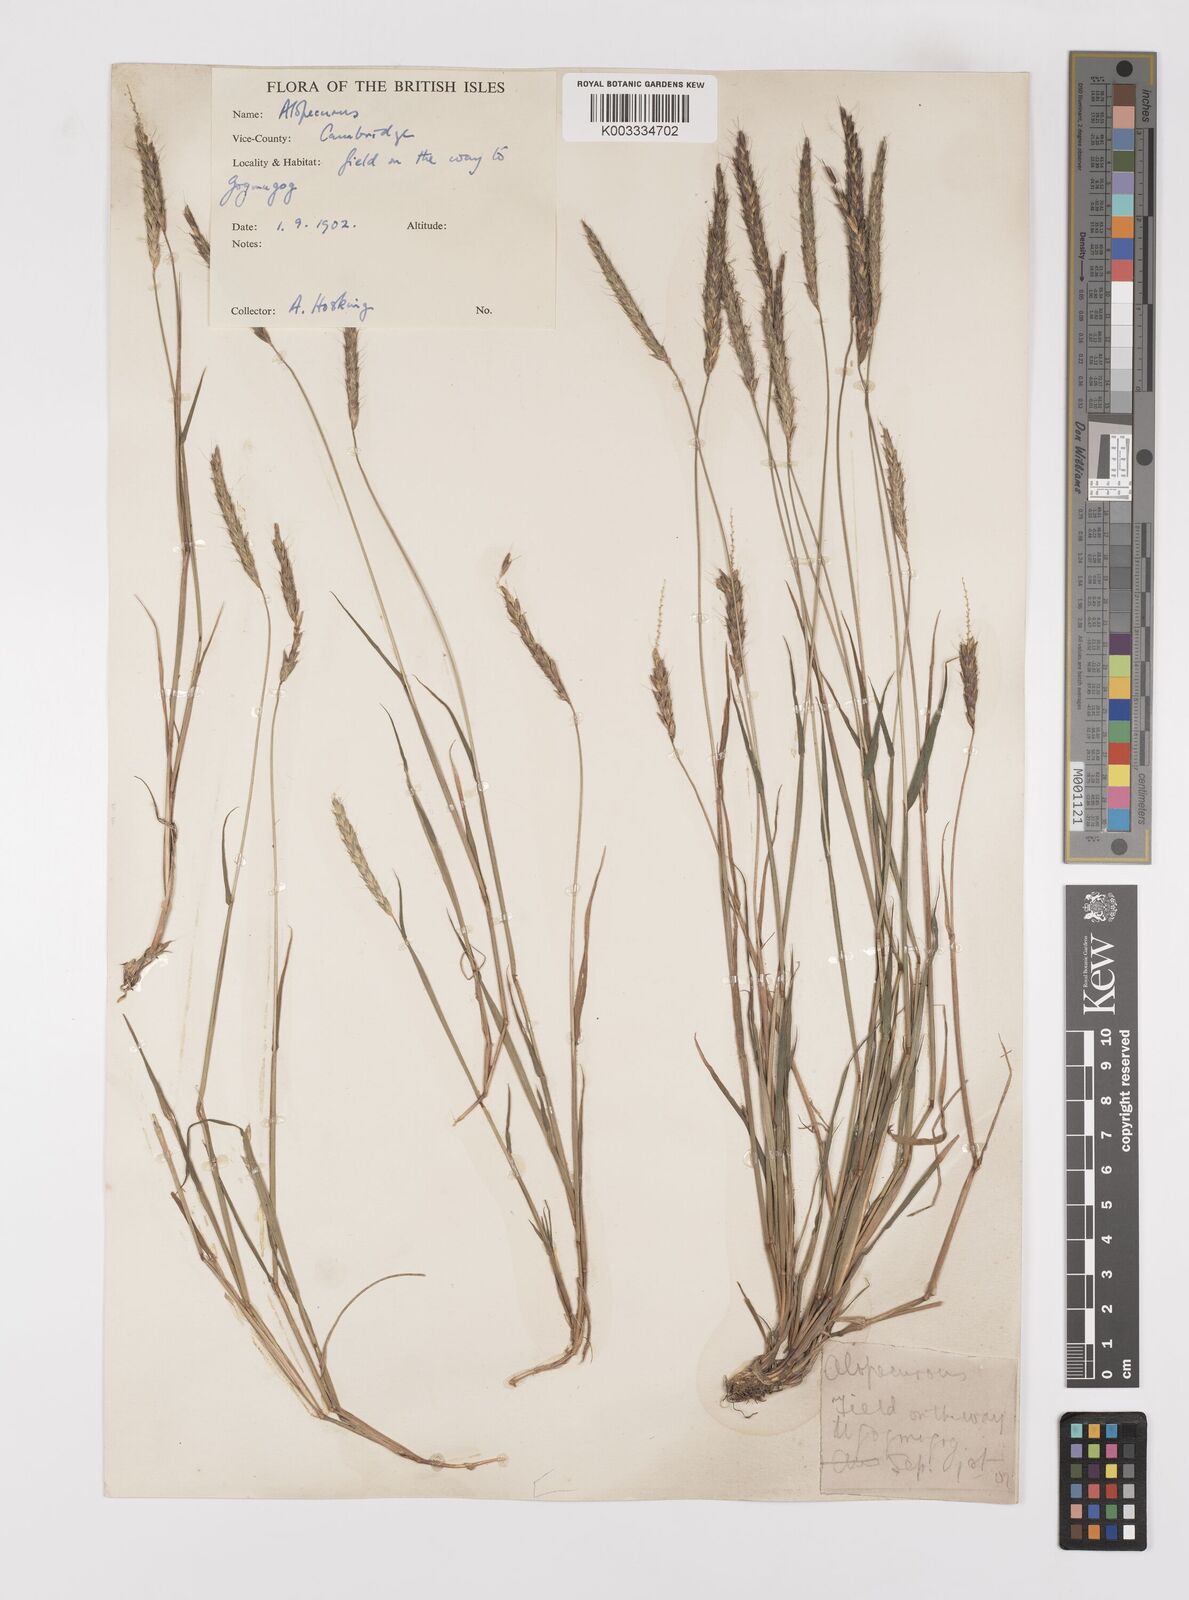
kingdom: Plantae
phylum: Tracheophyta
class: Liliopsida
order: Poales
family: Poaceae
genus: Alopecurus
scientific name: Alopecurus myosuroides
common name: Black-grass
